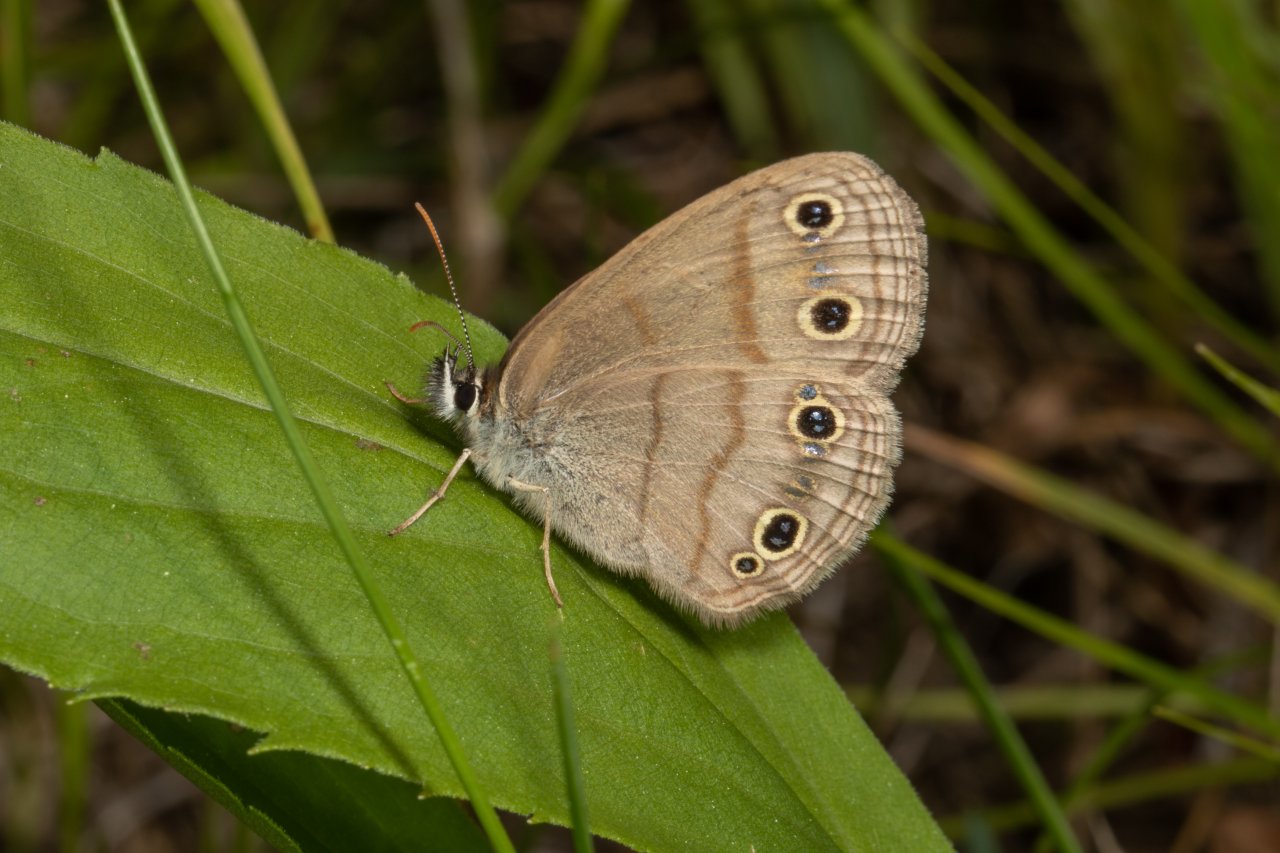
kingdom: Animalia
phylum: Arthropoda
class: Insecta
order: Lepidoptera
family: Nymphalidae
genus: Euptychia
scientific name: Euptychia cymela
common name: Little Wood Satyr
